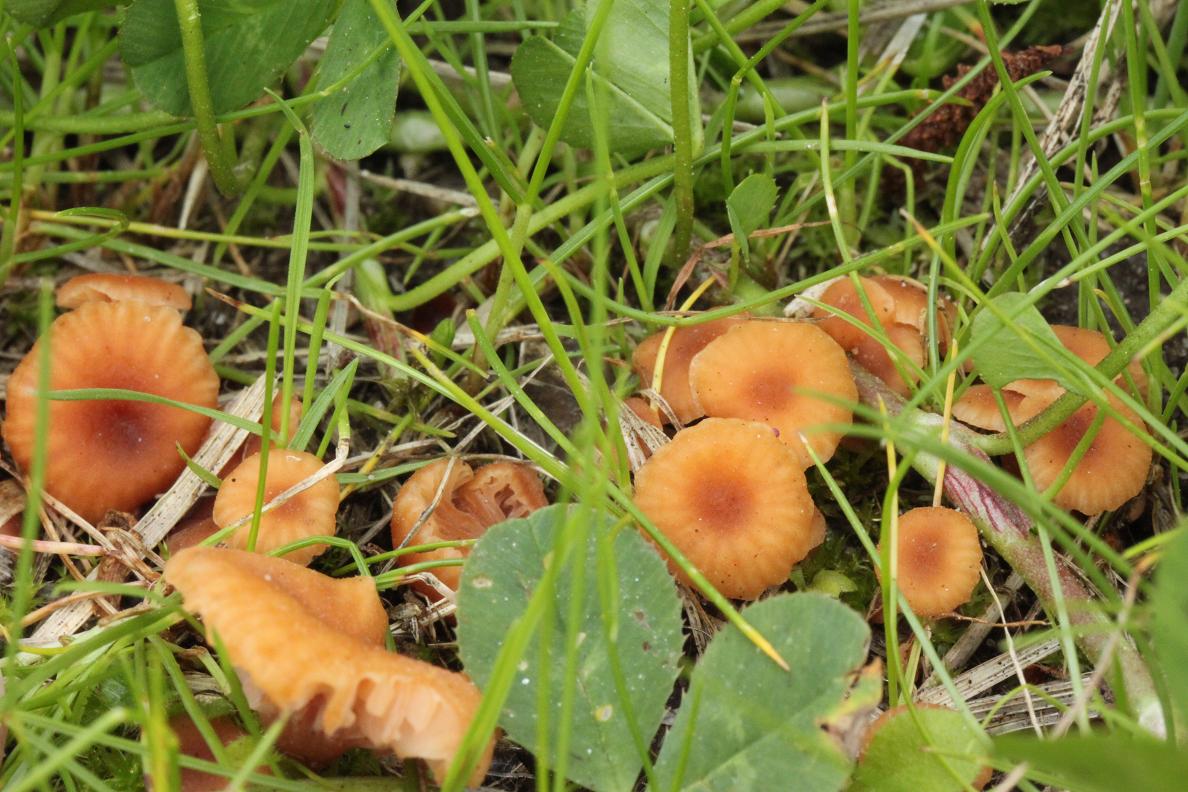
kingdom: Fungi
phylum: Basidiomycota
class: Agaricomycetes
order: Agaricales
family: Hydnangiaceae
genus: Laccaria
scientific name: Laccaria tortilis
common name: krybende ametysthat
